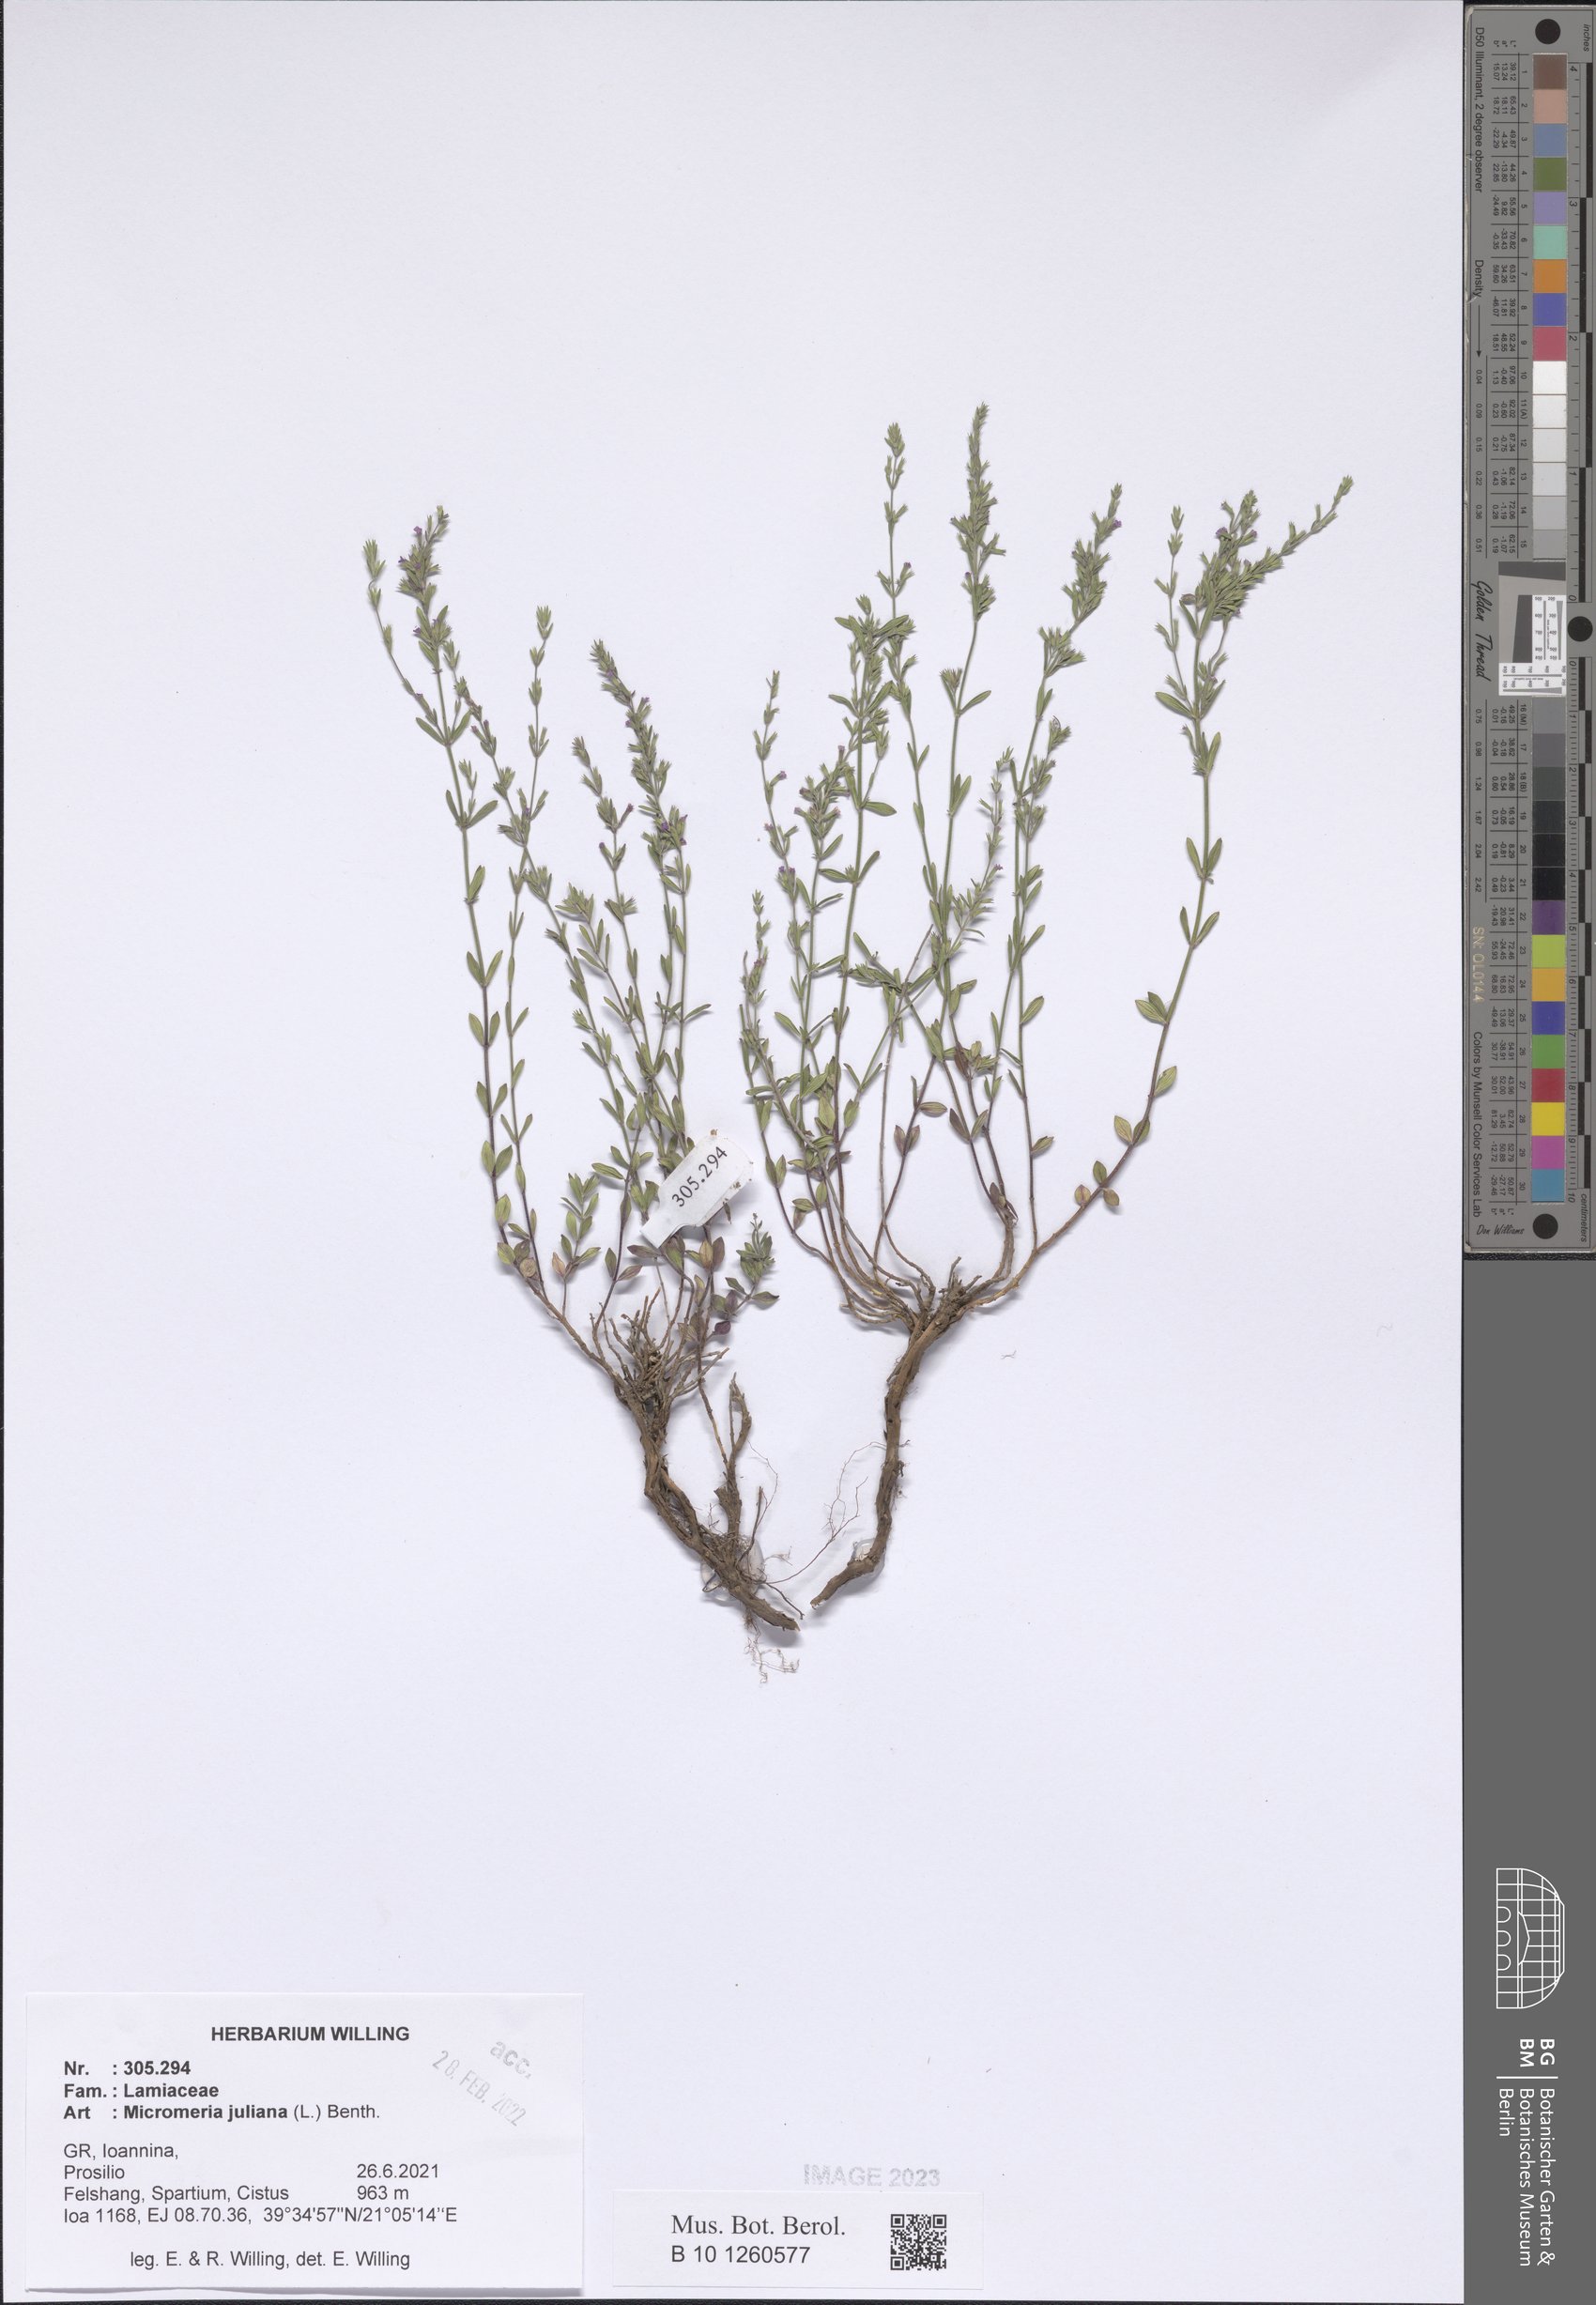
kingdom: Plantae
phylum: Tracheophyta
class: Magnoliopsida
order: Lamiales
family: Lamiaceae
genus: Micromeria
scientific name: Micromeria juliana
